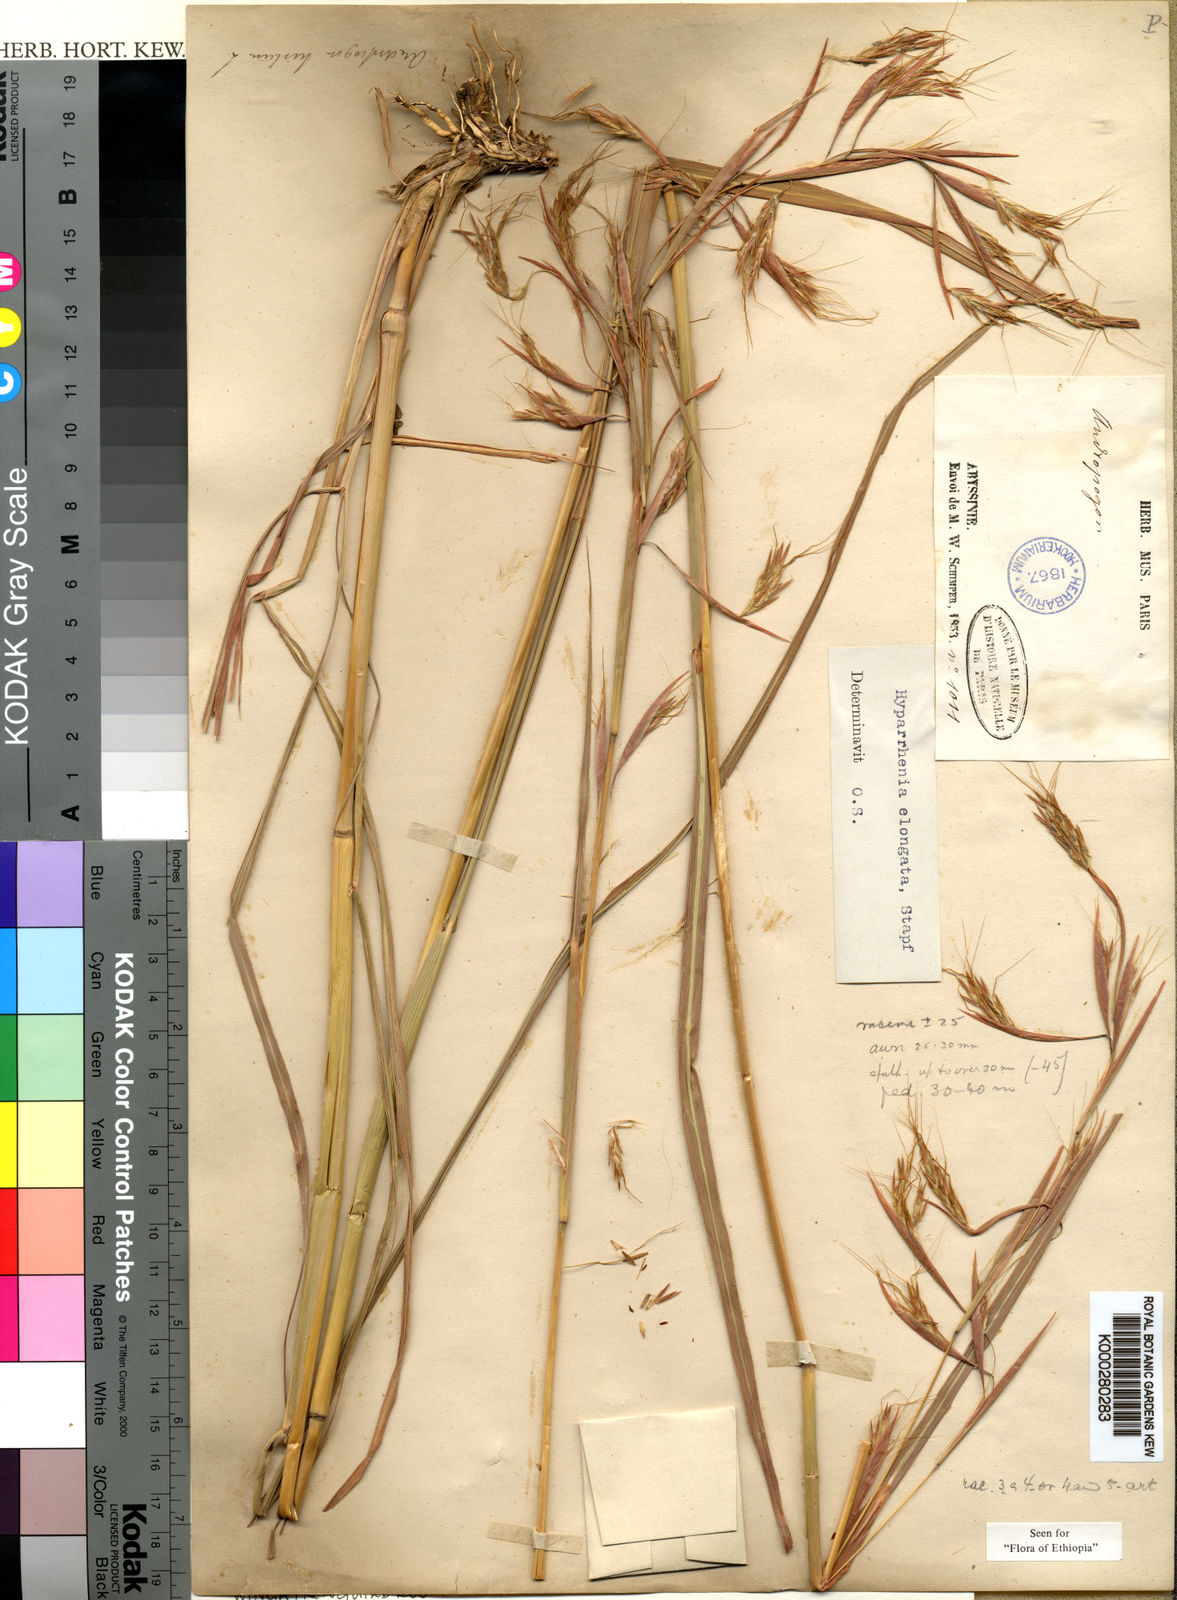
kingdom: Plantae
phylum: Tracheophyta
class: Liliopsida
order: Poales
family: Poaceae
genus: Hyparrhenia
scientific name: Hyparrhenia dregeana
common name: Silky thatching grass
